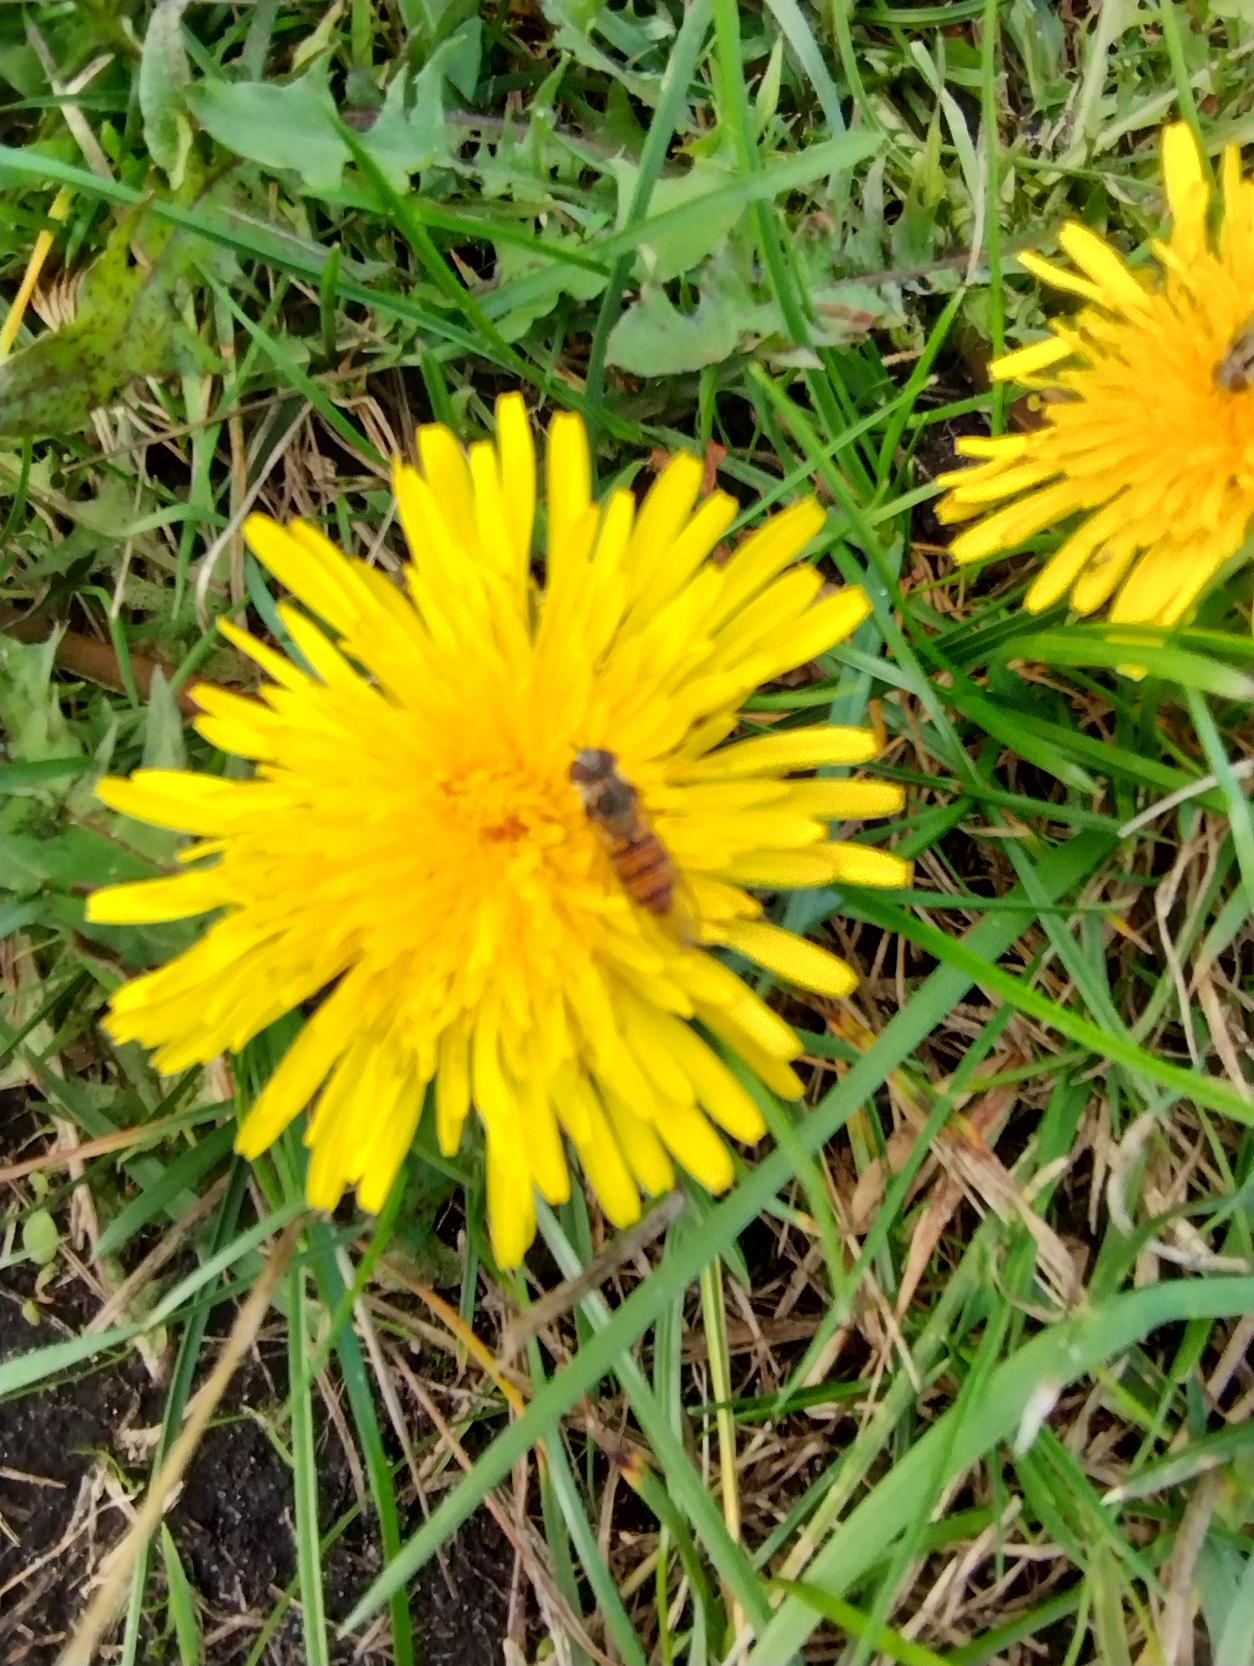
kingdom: Animalia
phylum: Arthropoda
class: Insecta
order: Diptera
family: Syrphidae
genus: Episyrphus
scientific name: Episyrphus balteatus
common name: Dobbeltbåndet svirreflue
